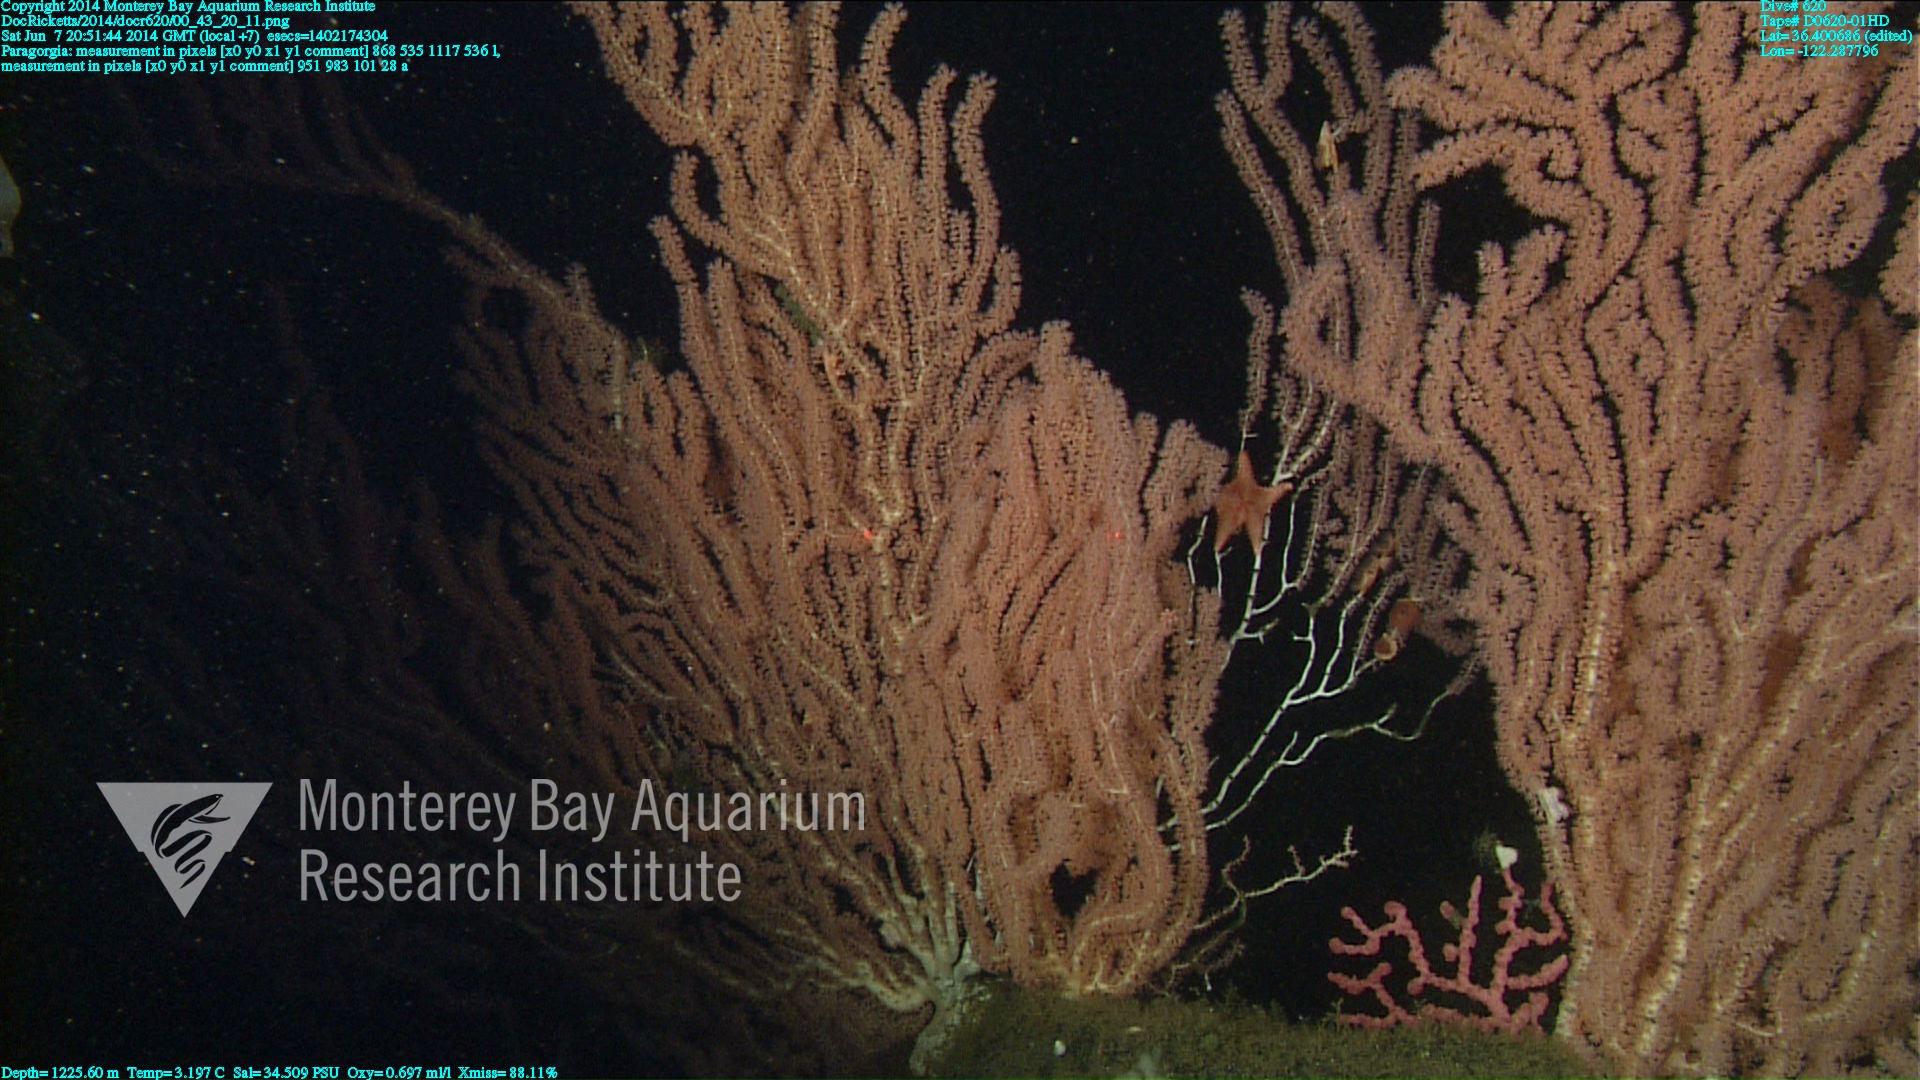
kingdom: Animalia
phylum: Cnidaria
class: Anthozoa
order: Scleralcyonacea
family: Coralliidae
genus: Paragorgia
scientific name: Paragorgia
